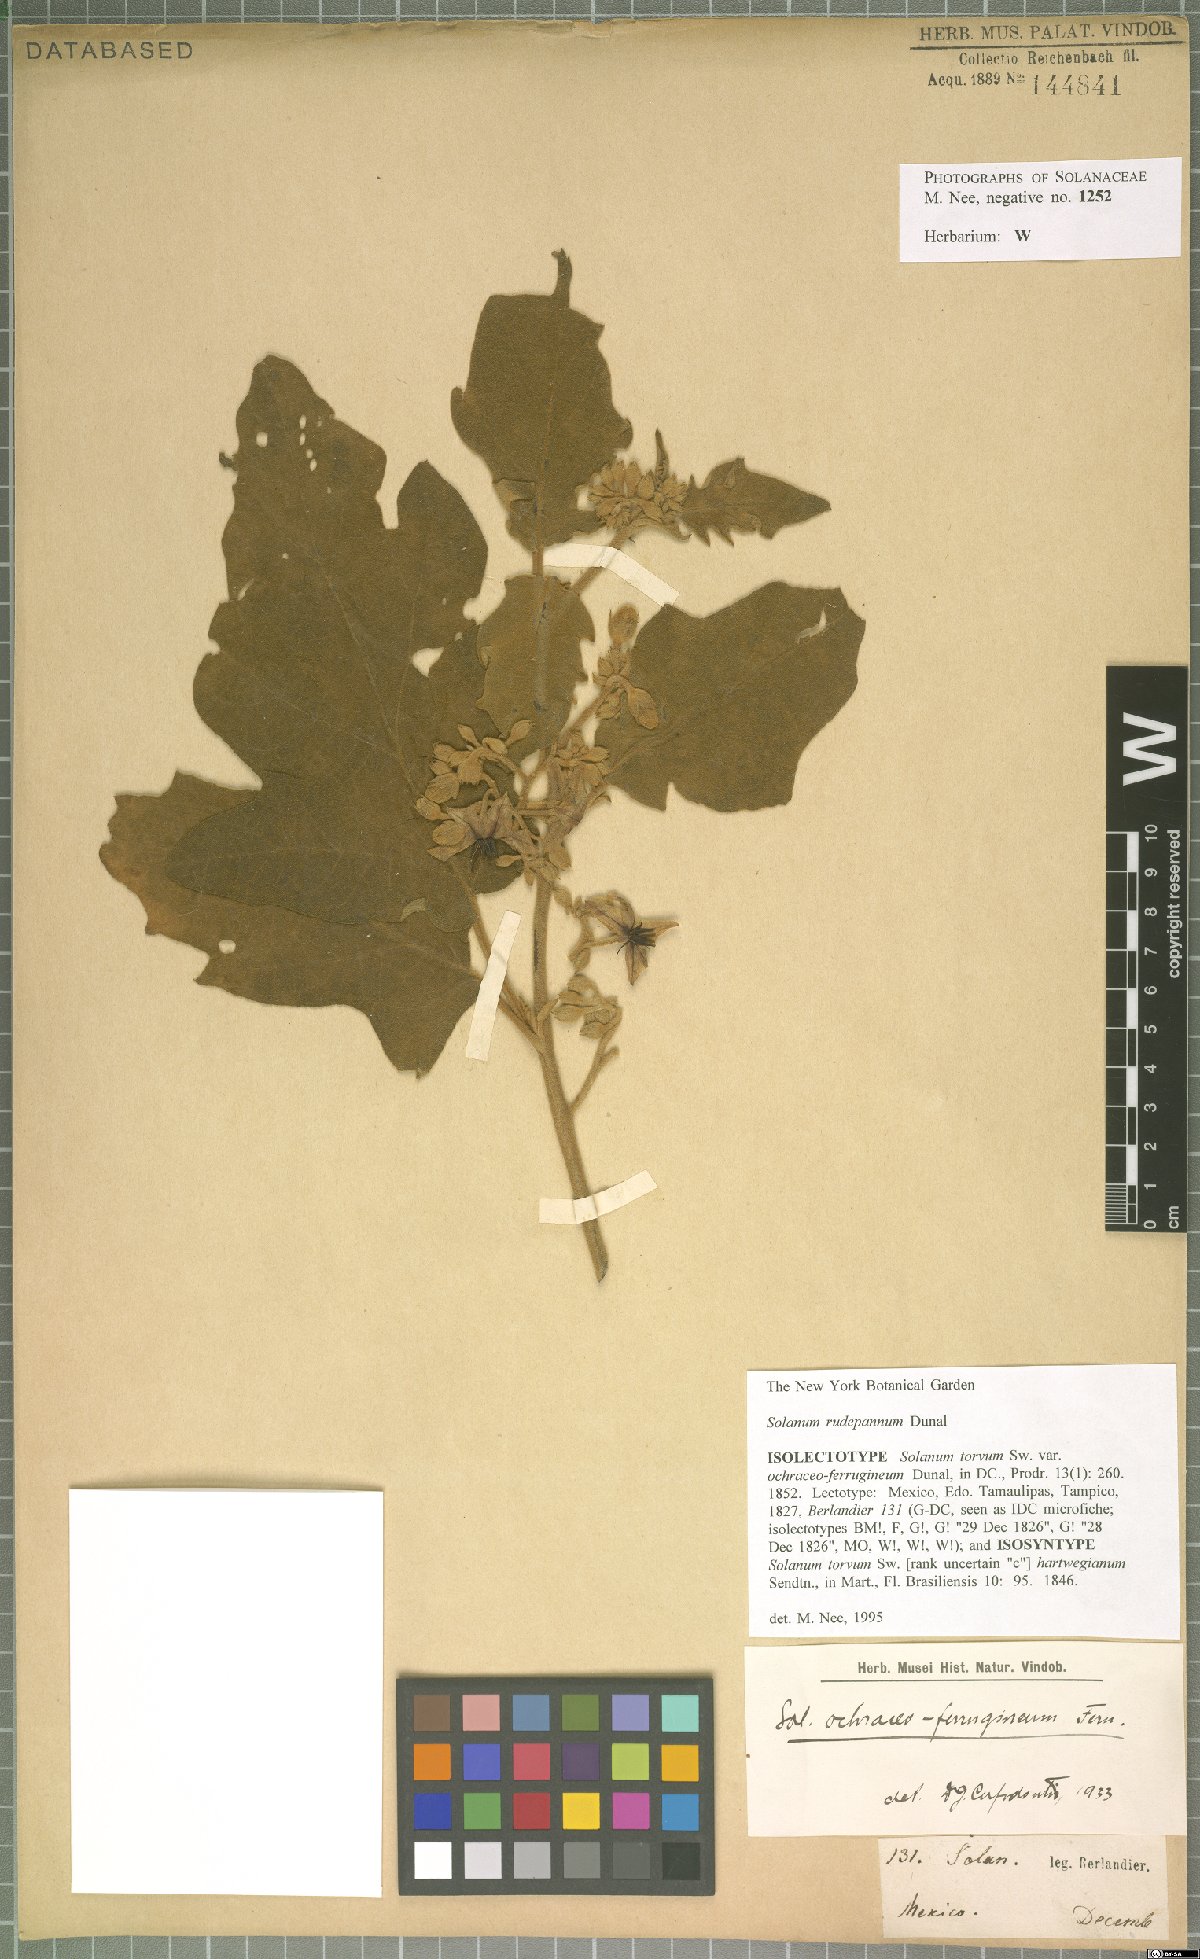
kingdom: Plantae
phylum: Tracheophyta
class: Magnoliopsida
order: Solanales
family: Solanaceae
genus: Solanum
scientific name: Solanum rude-pannum
